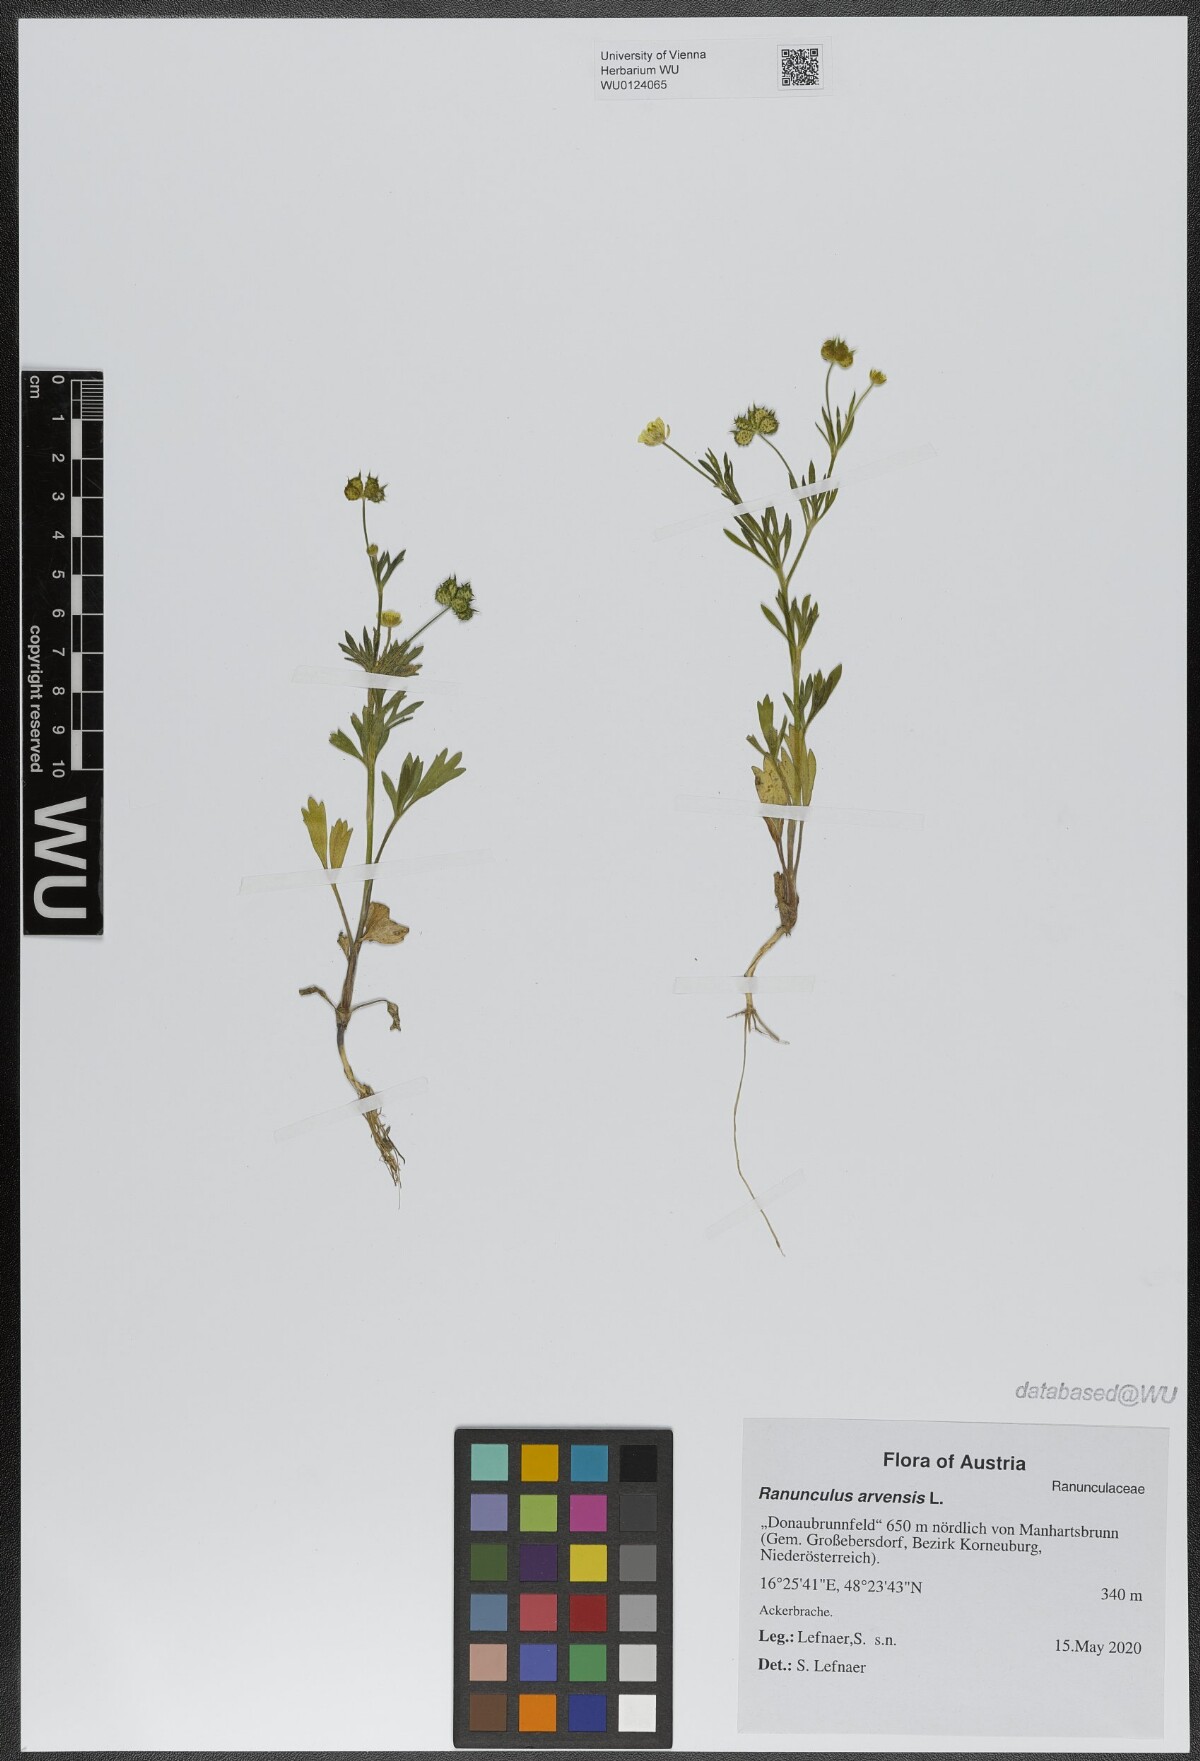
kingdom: Plantae
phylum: Tracheophyta
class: Magnoliopsida
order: Ranunculales
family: Ranunculaceae
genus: Ranunculus
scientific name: Ranunculus arvensis
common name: Corn buttercup
